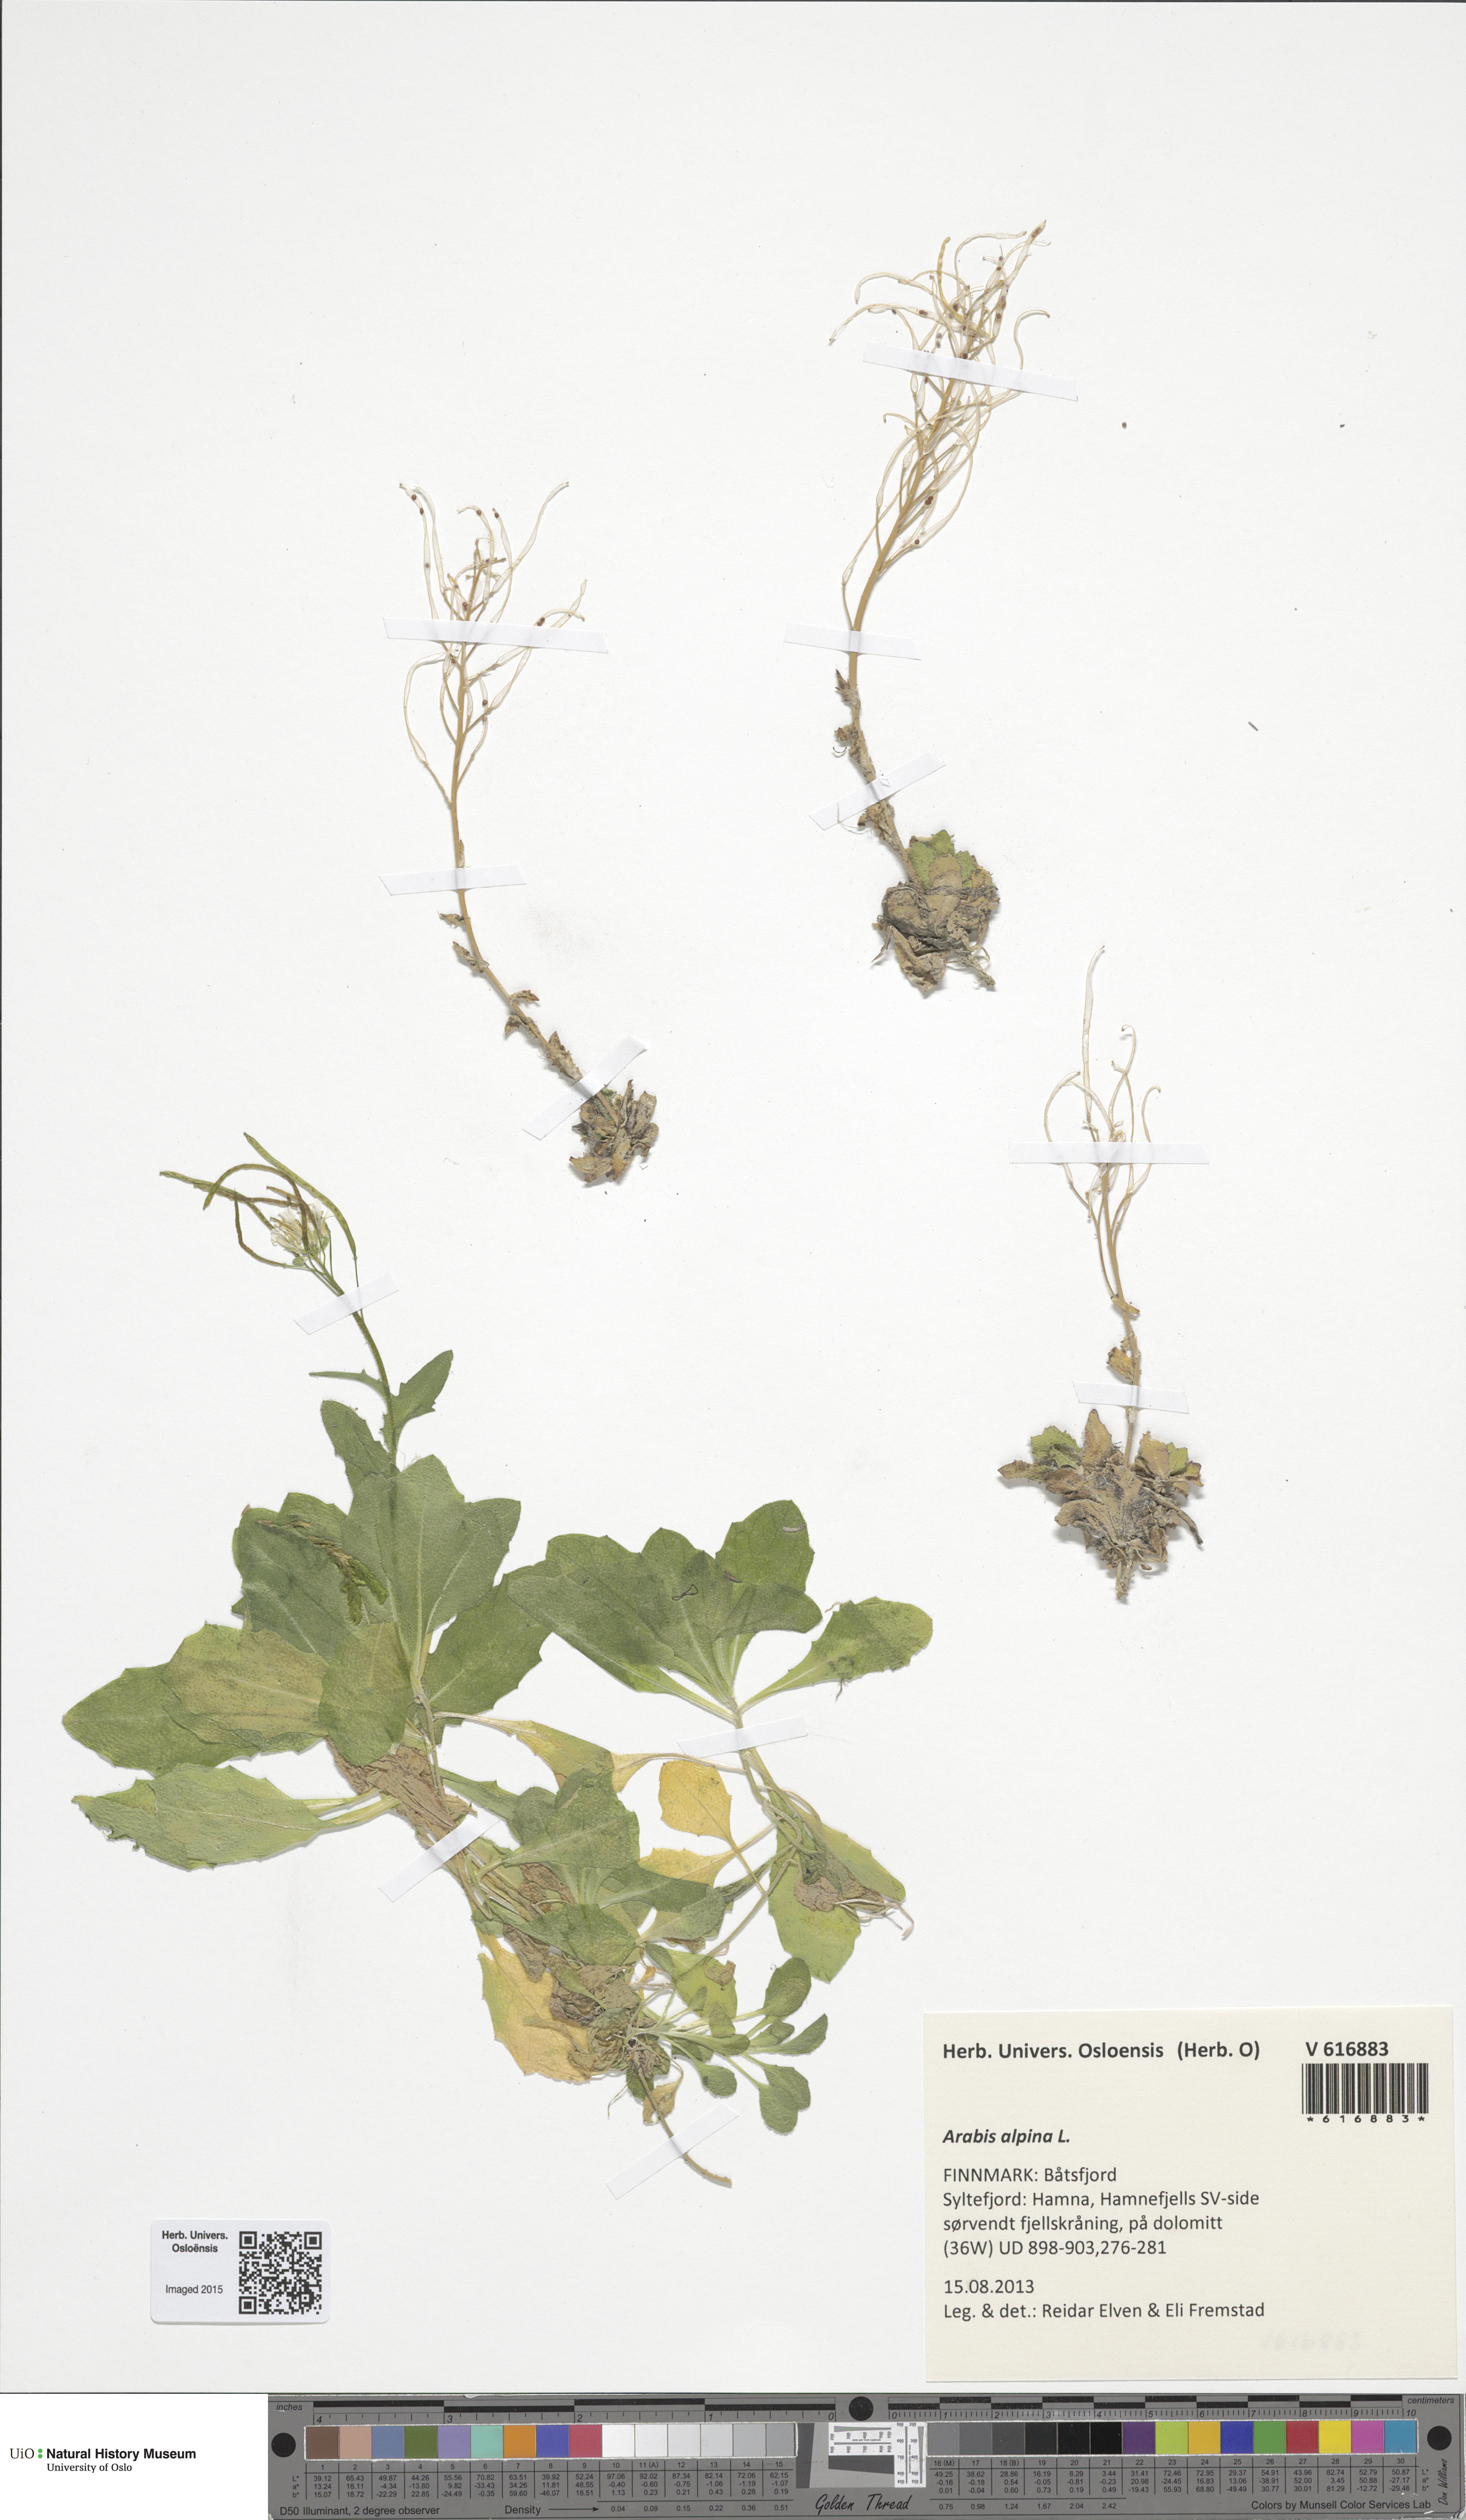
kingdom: Plantae
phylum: Tracheophyta
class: Magnoliopsida
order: Brassicales
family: Brassicaceae
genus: Arabis
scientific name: Arabis alpina
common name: Alpine rock-cress
